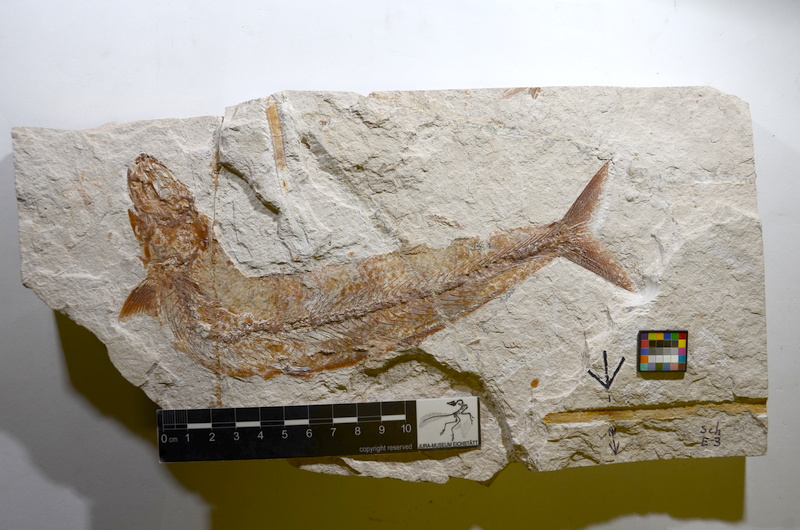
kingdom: Animalia
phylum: Chordata
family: Allothrissopidae
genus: Allothrissops
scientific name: Allothrissops
